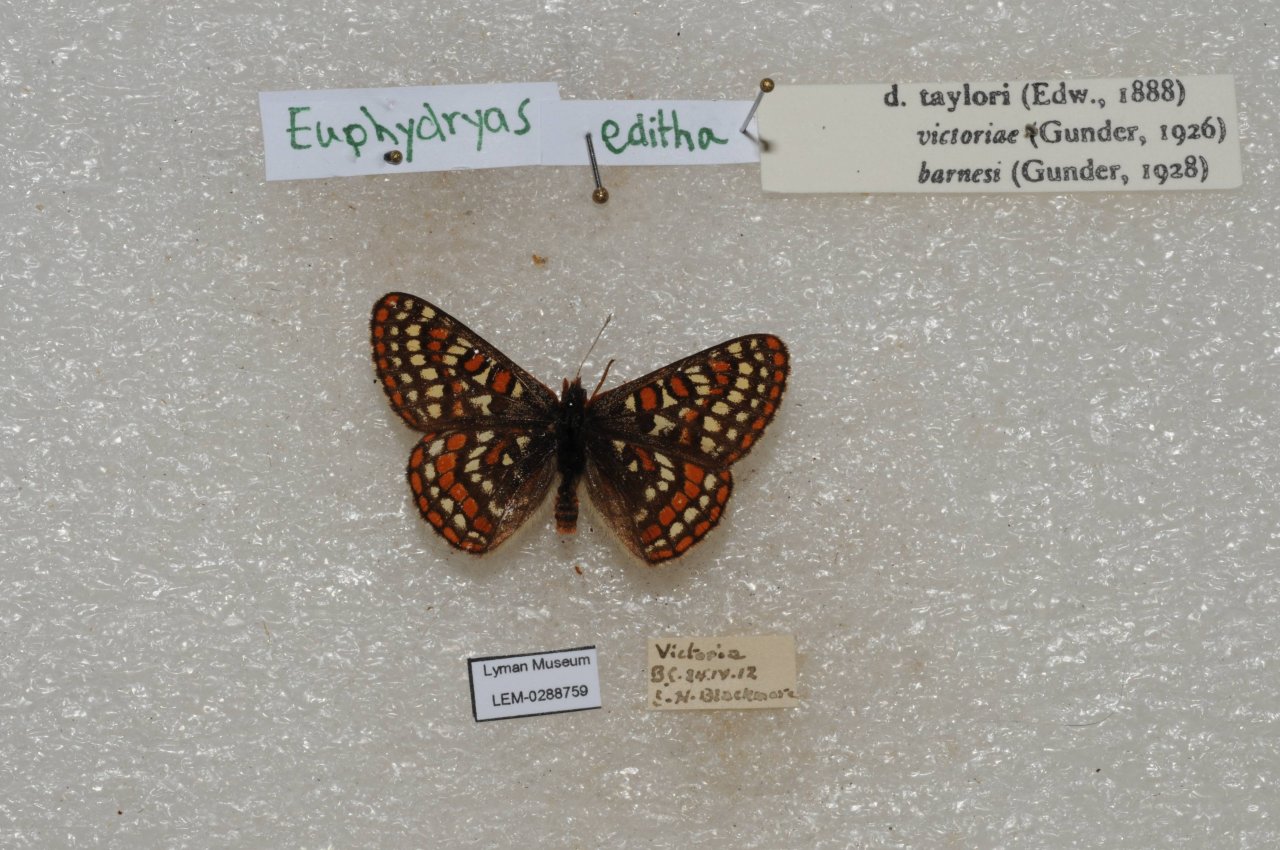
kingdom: Animalia
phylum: Arthropoda
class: Insecta
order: Lepidoptera
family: Nymphalidae
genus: Occidryas
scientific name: Occidryas editha
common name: Edith's Checkerspot
